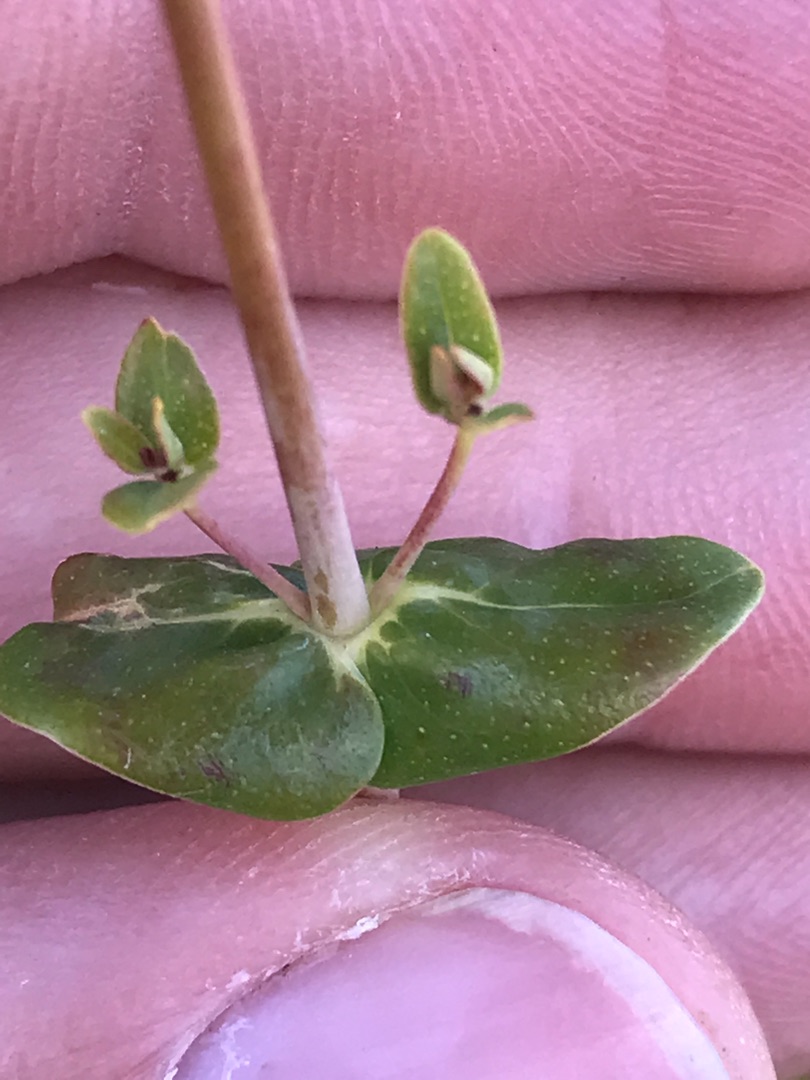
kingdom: Plantae
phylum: Tracheophyta
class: Magnoliopsida
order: Malpighiales
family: Hypericaceae
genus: Hypericum
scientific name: Hypericum pulchrum
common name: Smuk perikon
